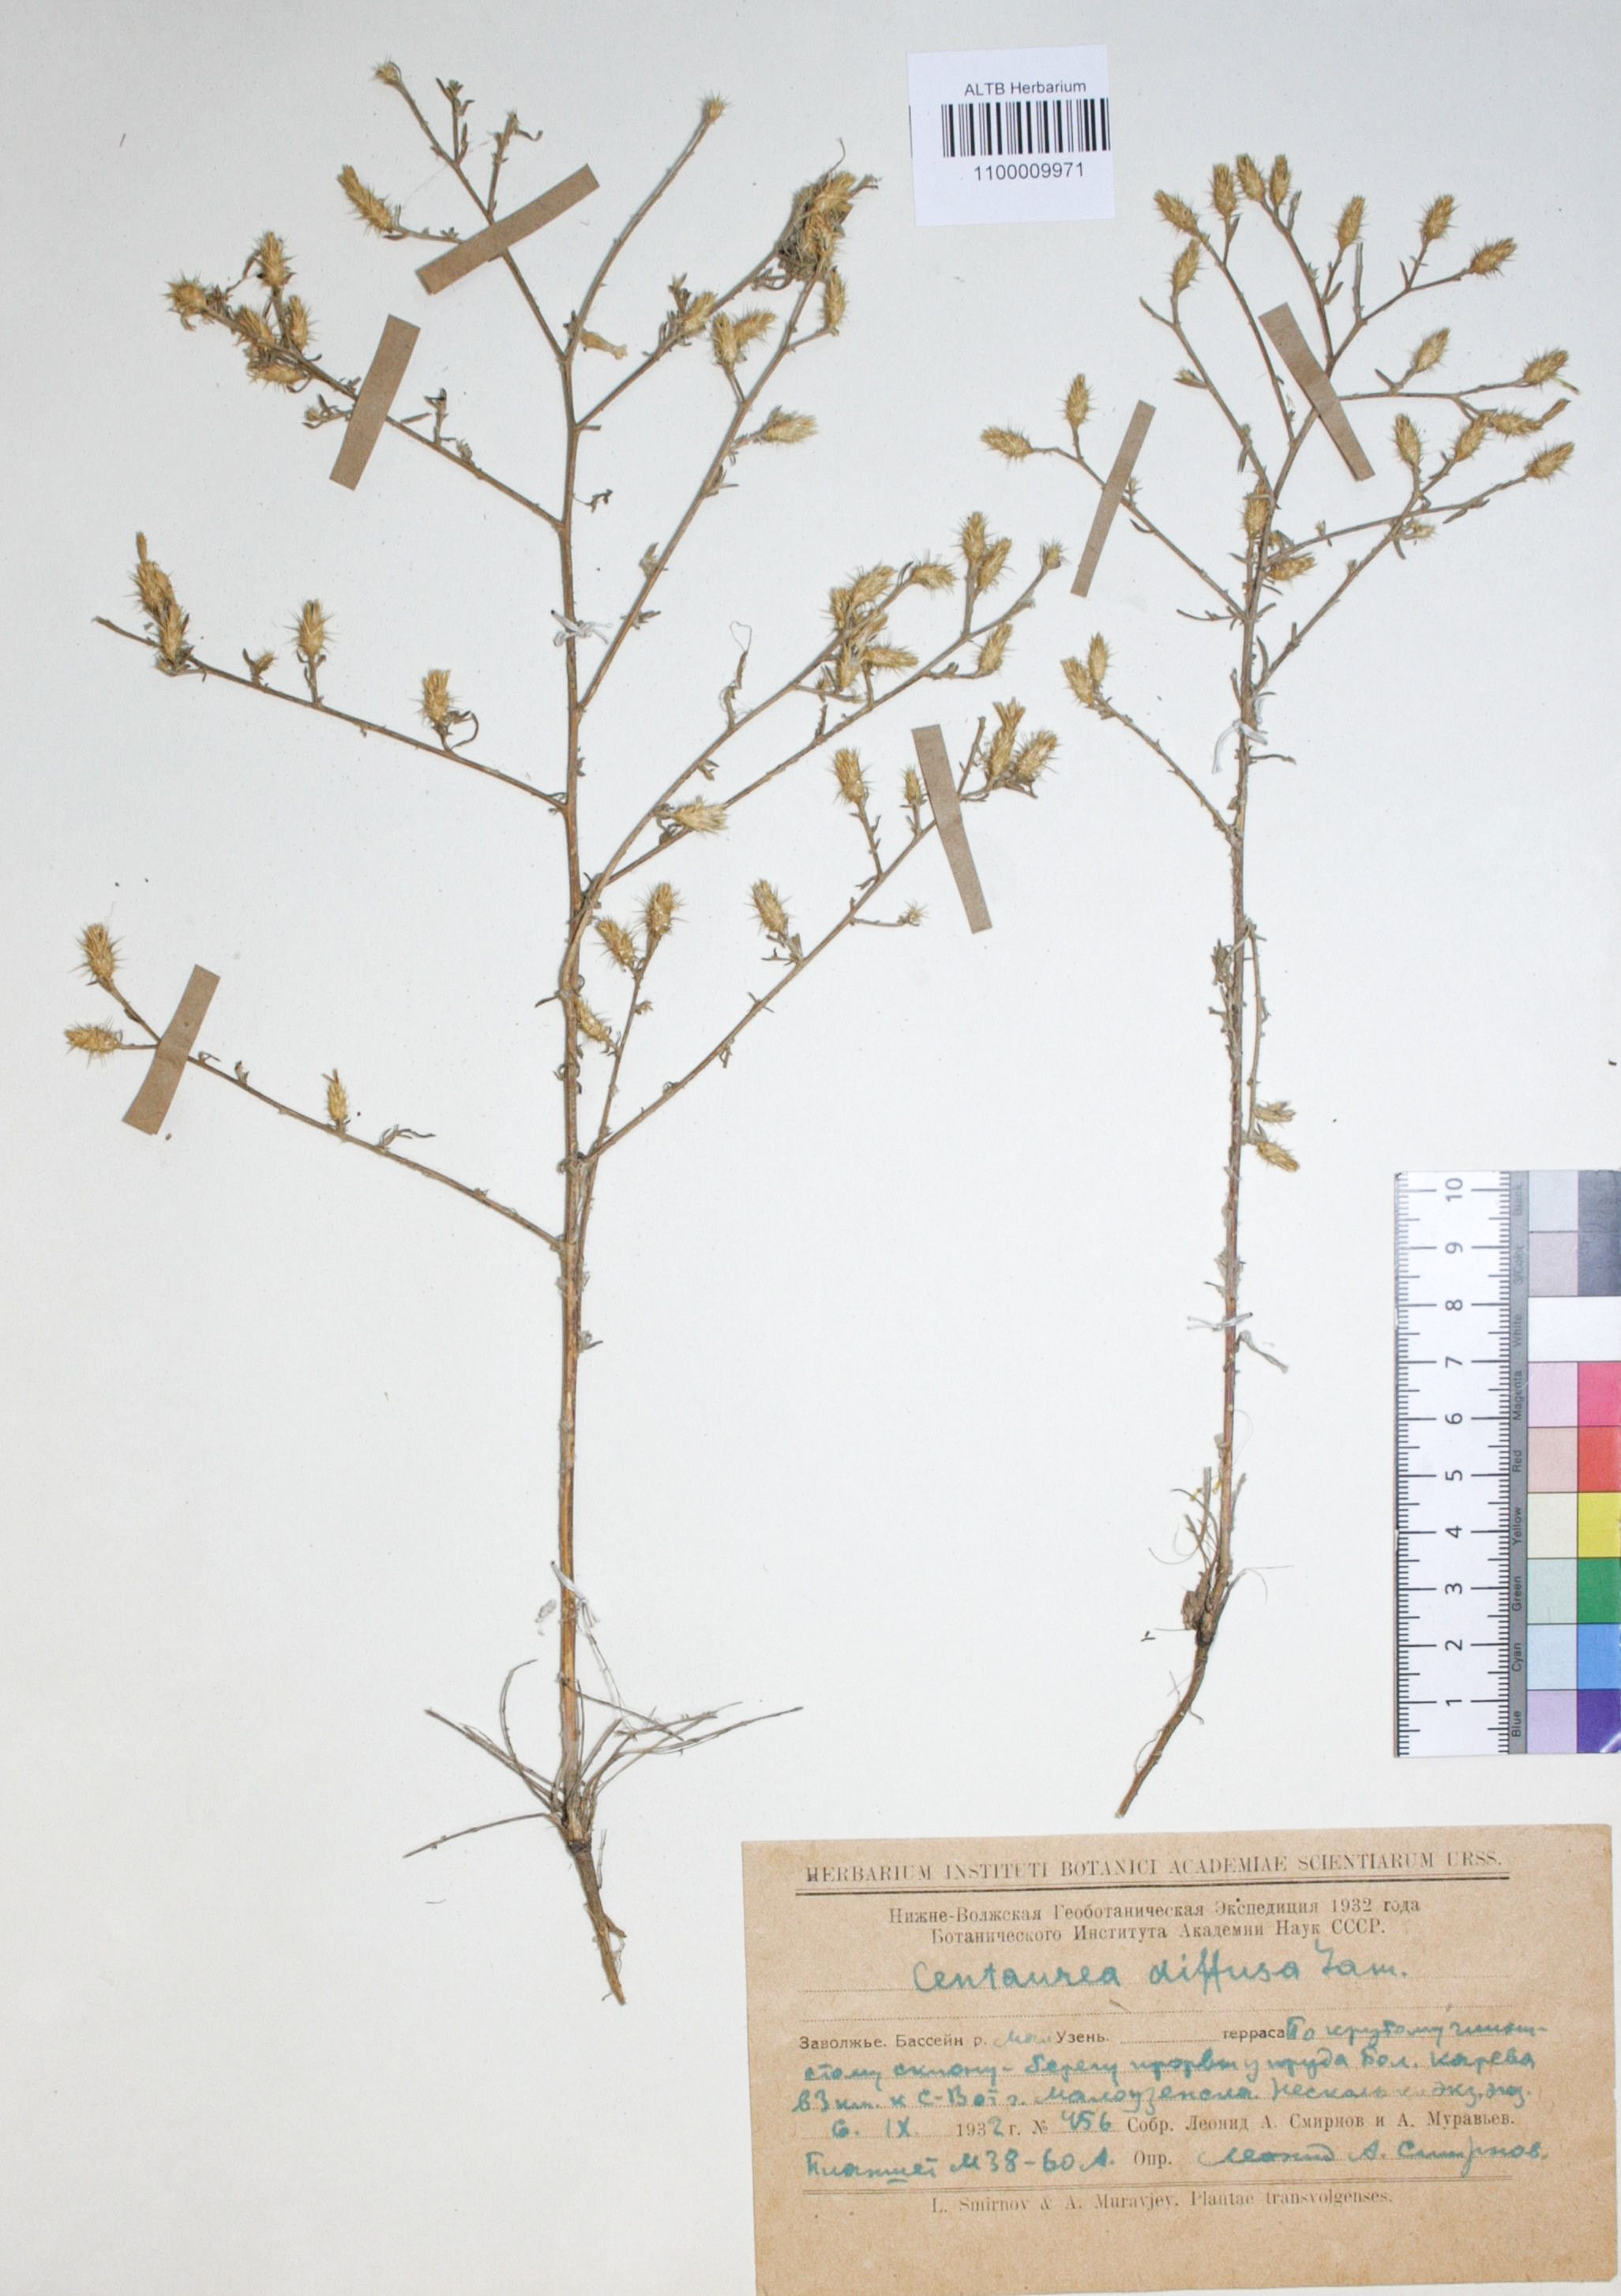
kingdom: Plantae
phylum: Tracheophyta
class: Magnoliopsida
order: Asterales
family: Asteraceae
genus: Centaurea
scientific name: Centaurea diffusa
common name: Diffuse knapweed
